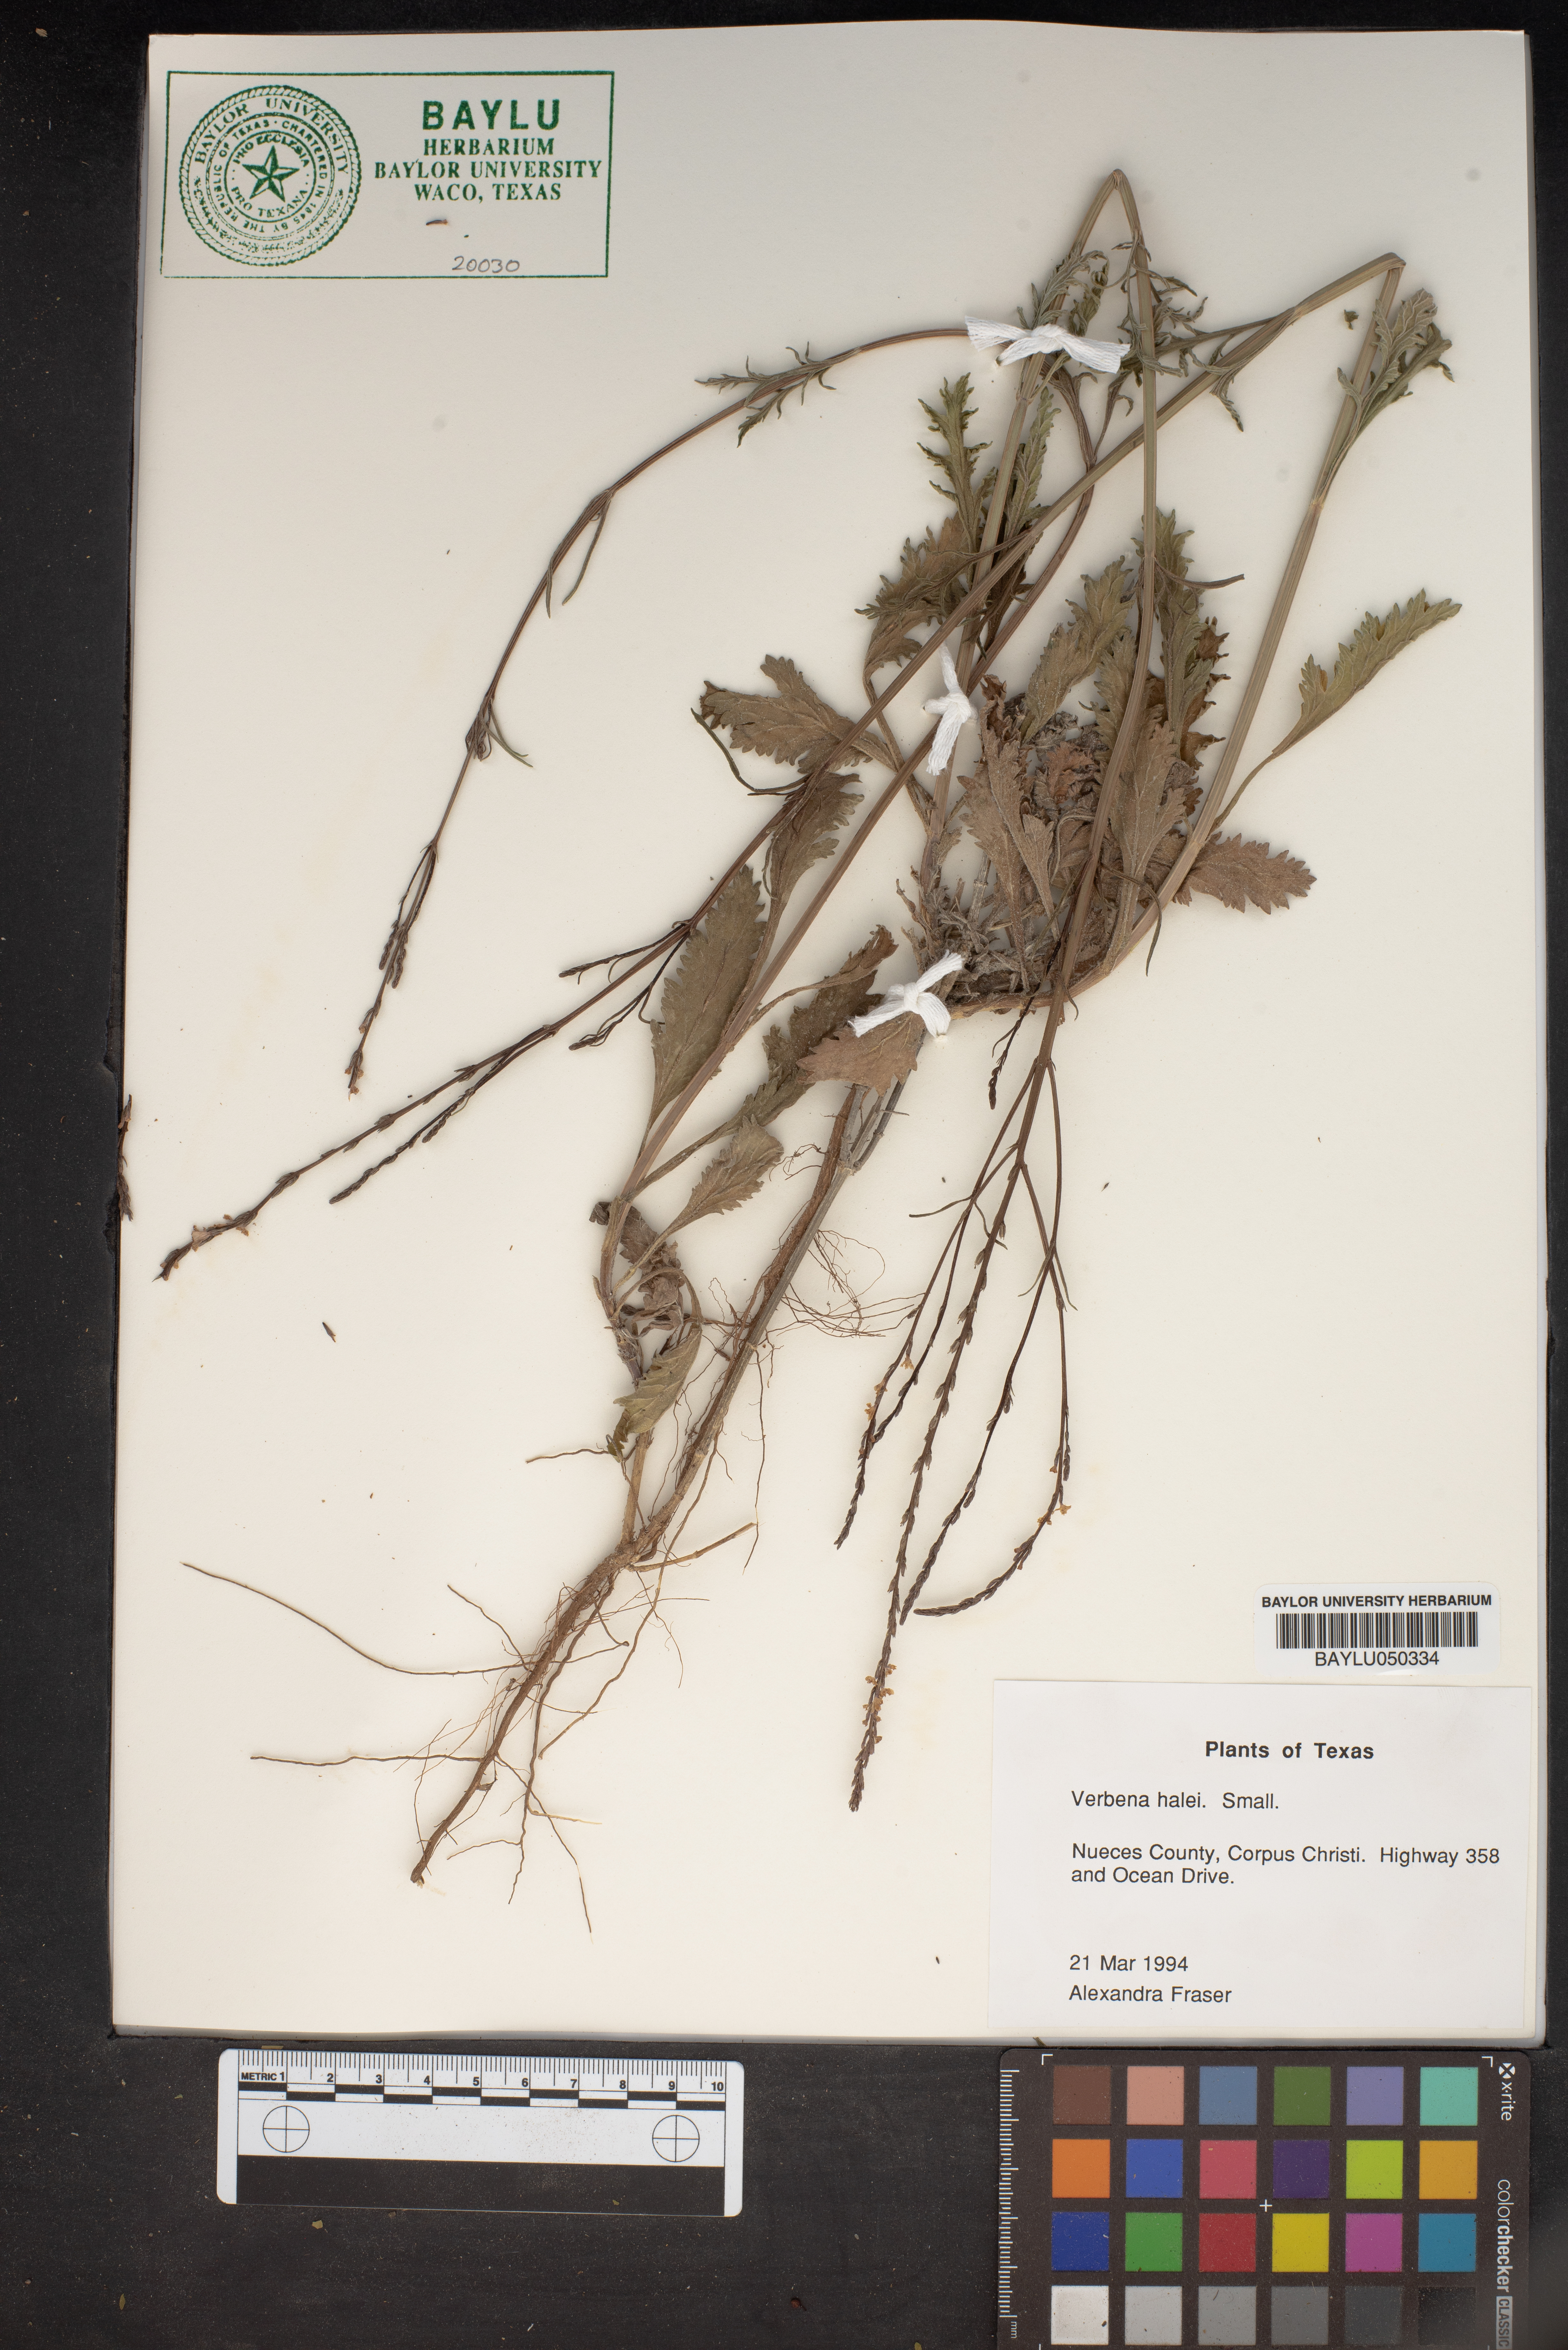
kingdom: Plantae
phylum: Tracheophyta
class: Magnoliopsida
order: Lamiales
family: Verbenaceae
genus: Verbena
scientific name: Verbena halei
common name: Texas vervain
